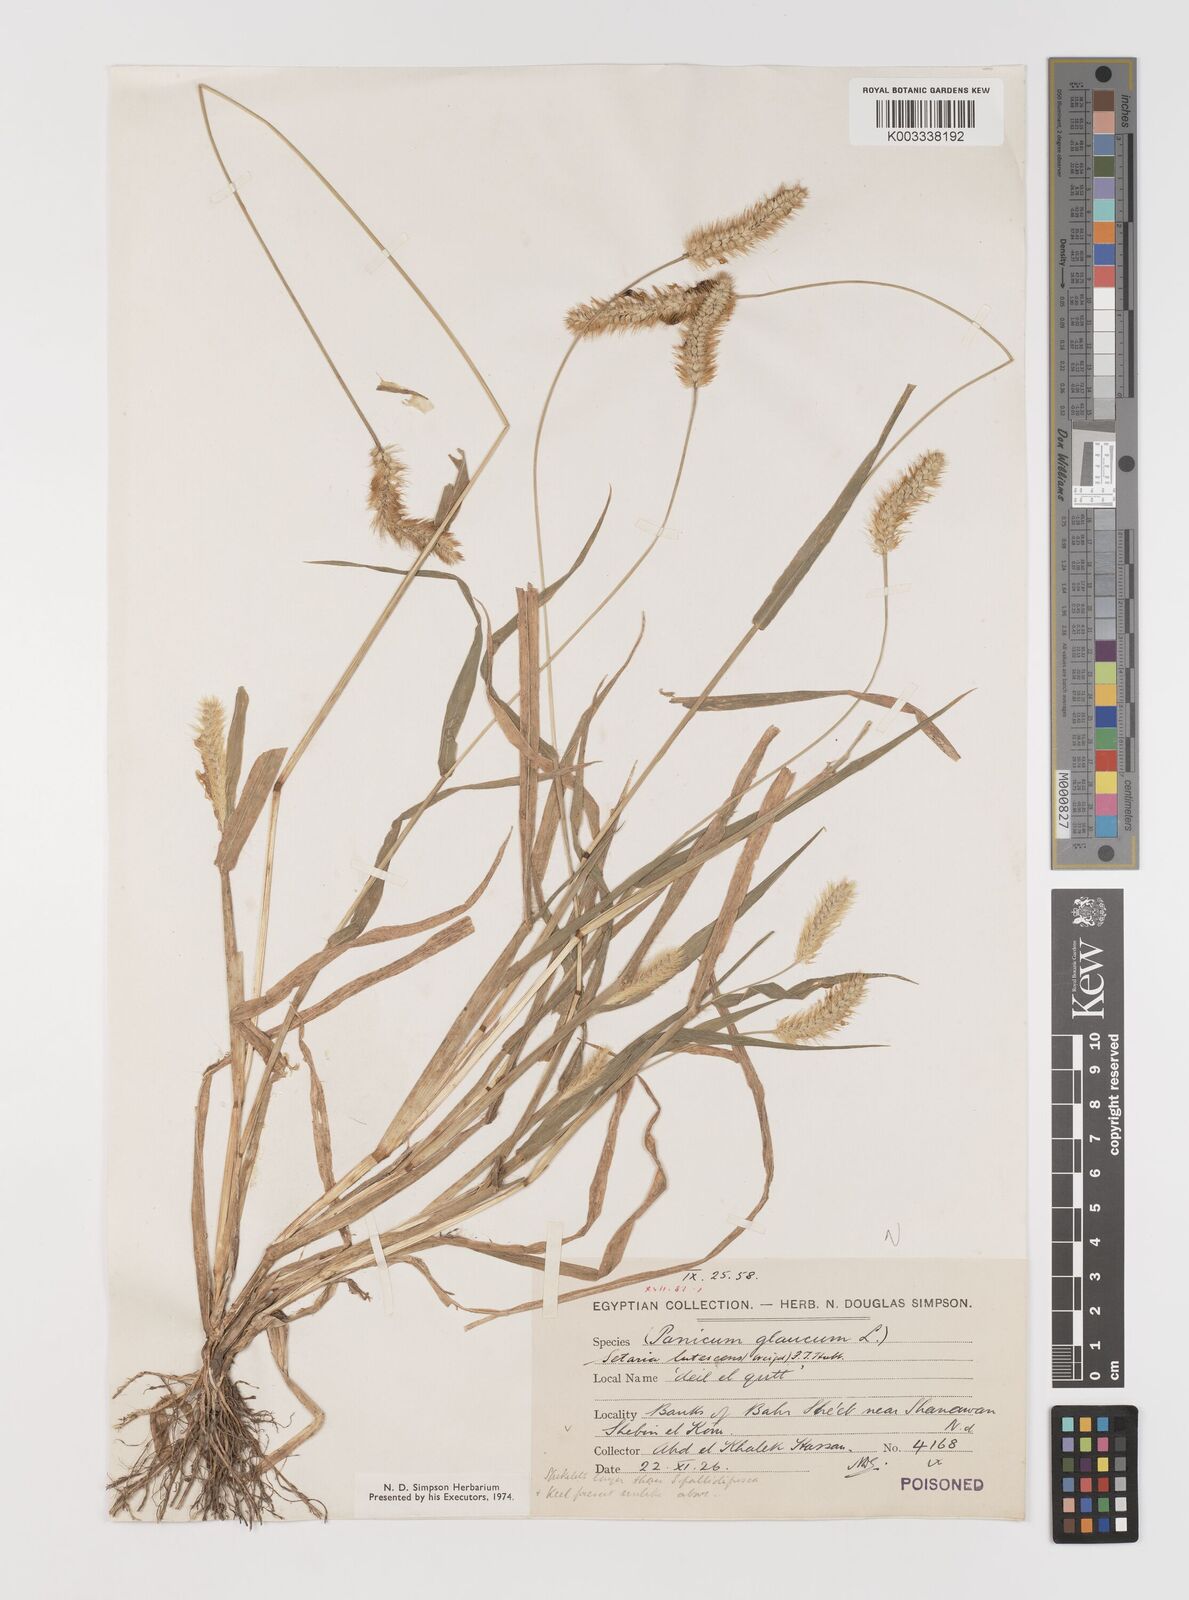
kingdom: Plantae
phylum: Tracheophyta
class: Liliopsida
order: Poales
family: Poaceae
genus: Setaria
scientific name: Setaria pumila
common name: Yellow bristle-grass
